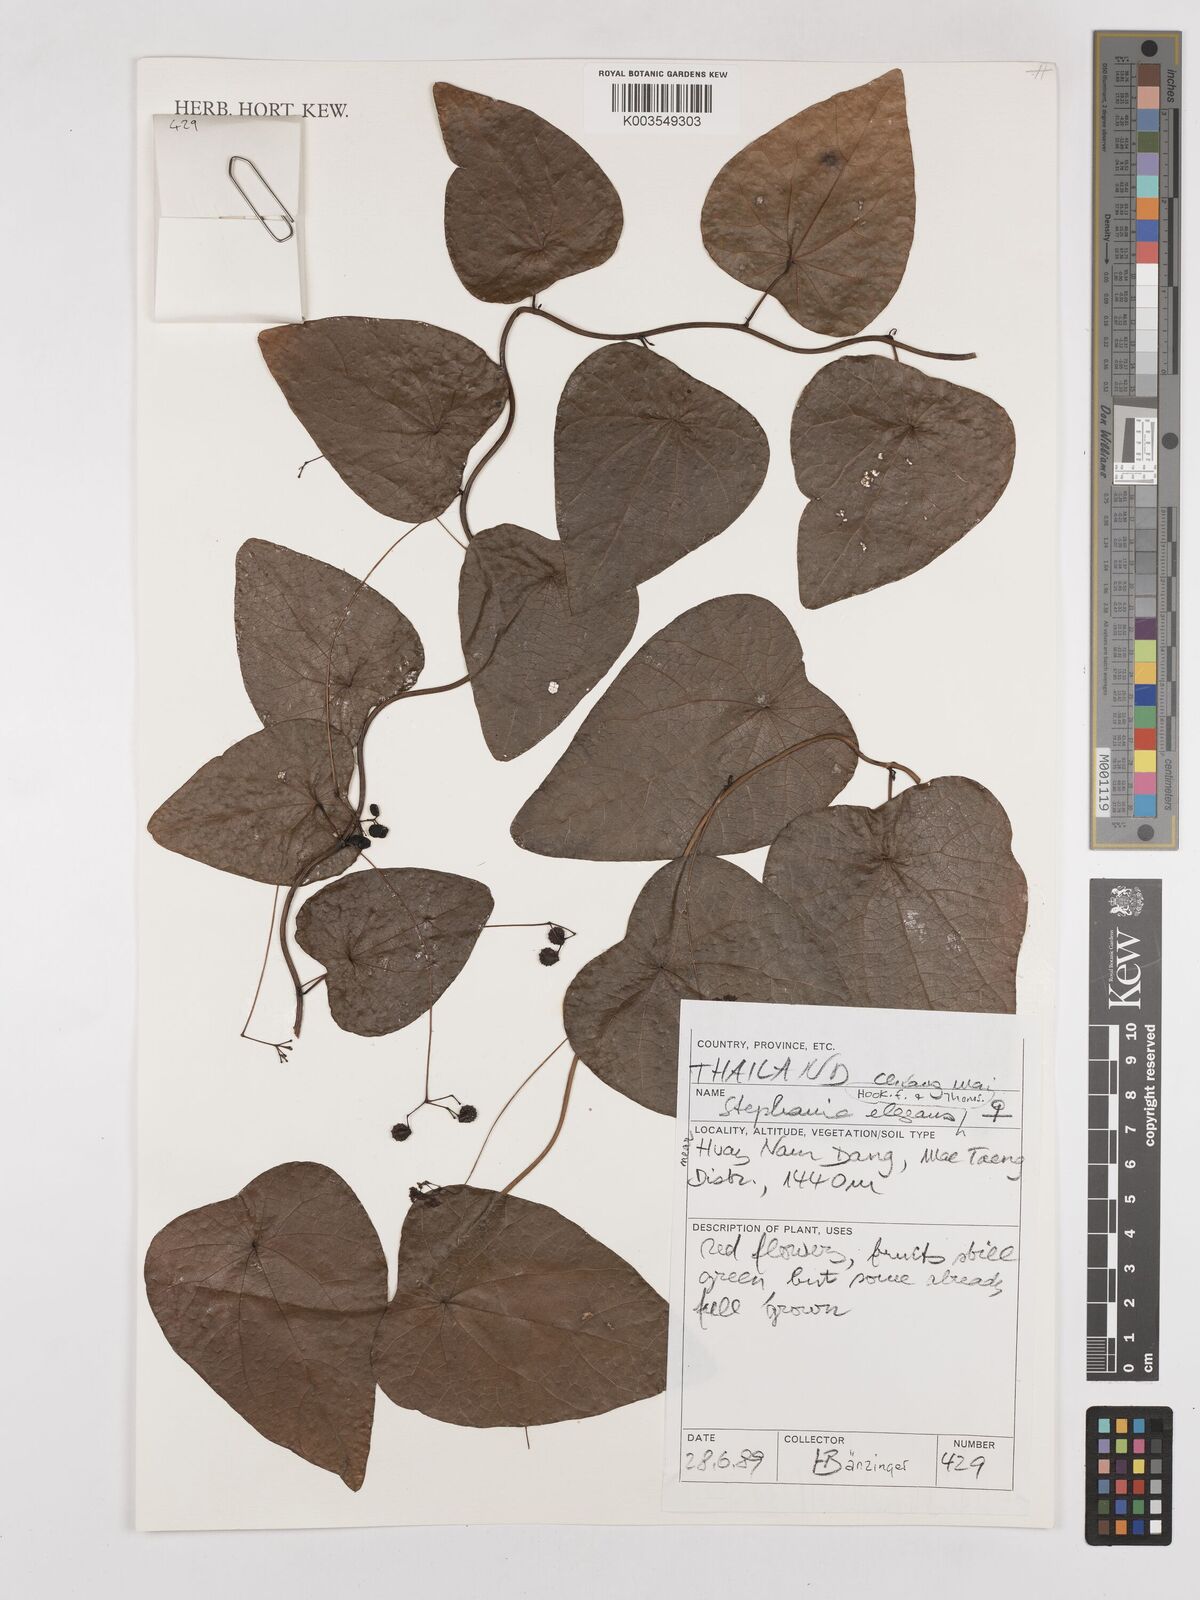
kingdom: Plantae
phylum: Tracheophyta
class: Magnoliopsida
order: Ranunculales
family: Menispermaceae
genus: Stephania
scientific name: Stephania elegans
